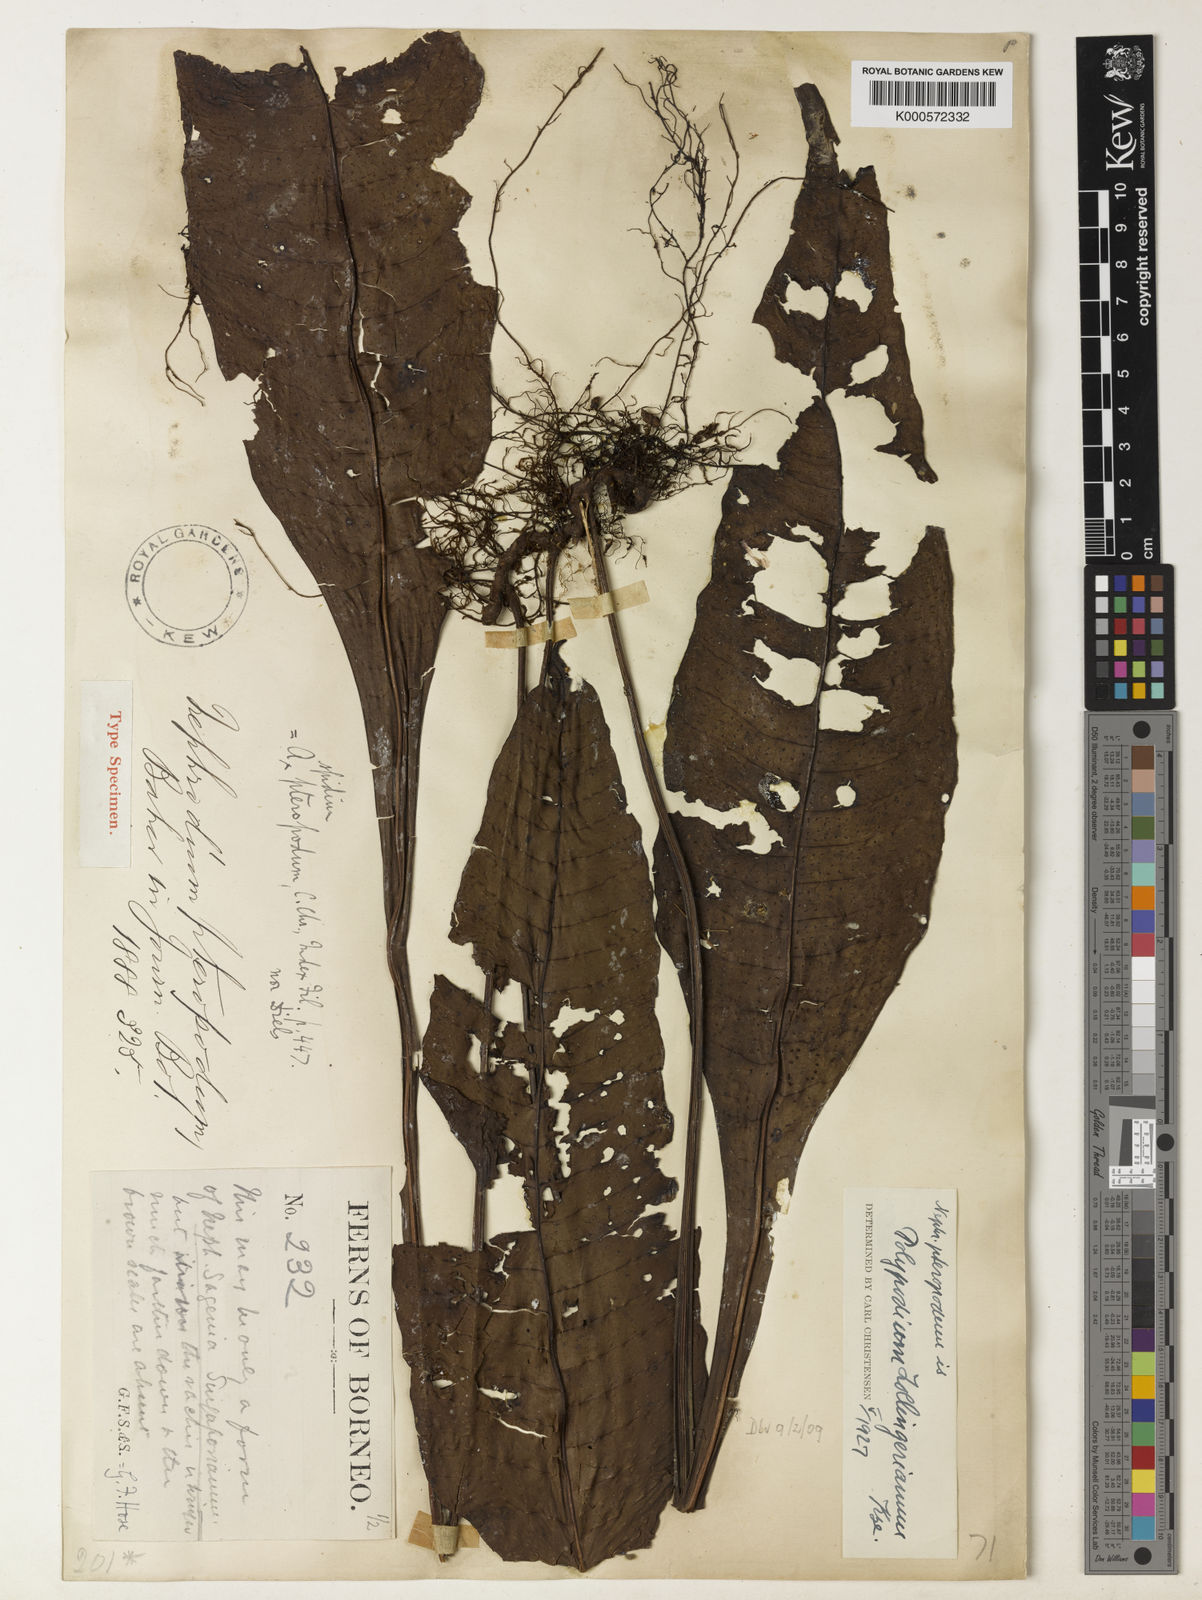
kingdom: Plantae
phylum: Tracheophyta
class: Polypodiopsida
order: Polypodiales
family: Polypodiaceae
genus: Microsorum
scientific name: Microsorum heterocarpum
